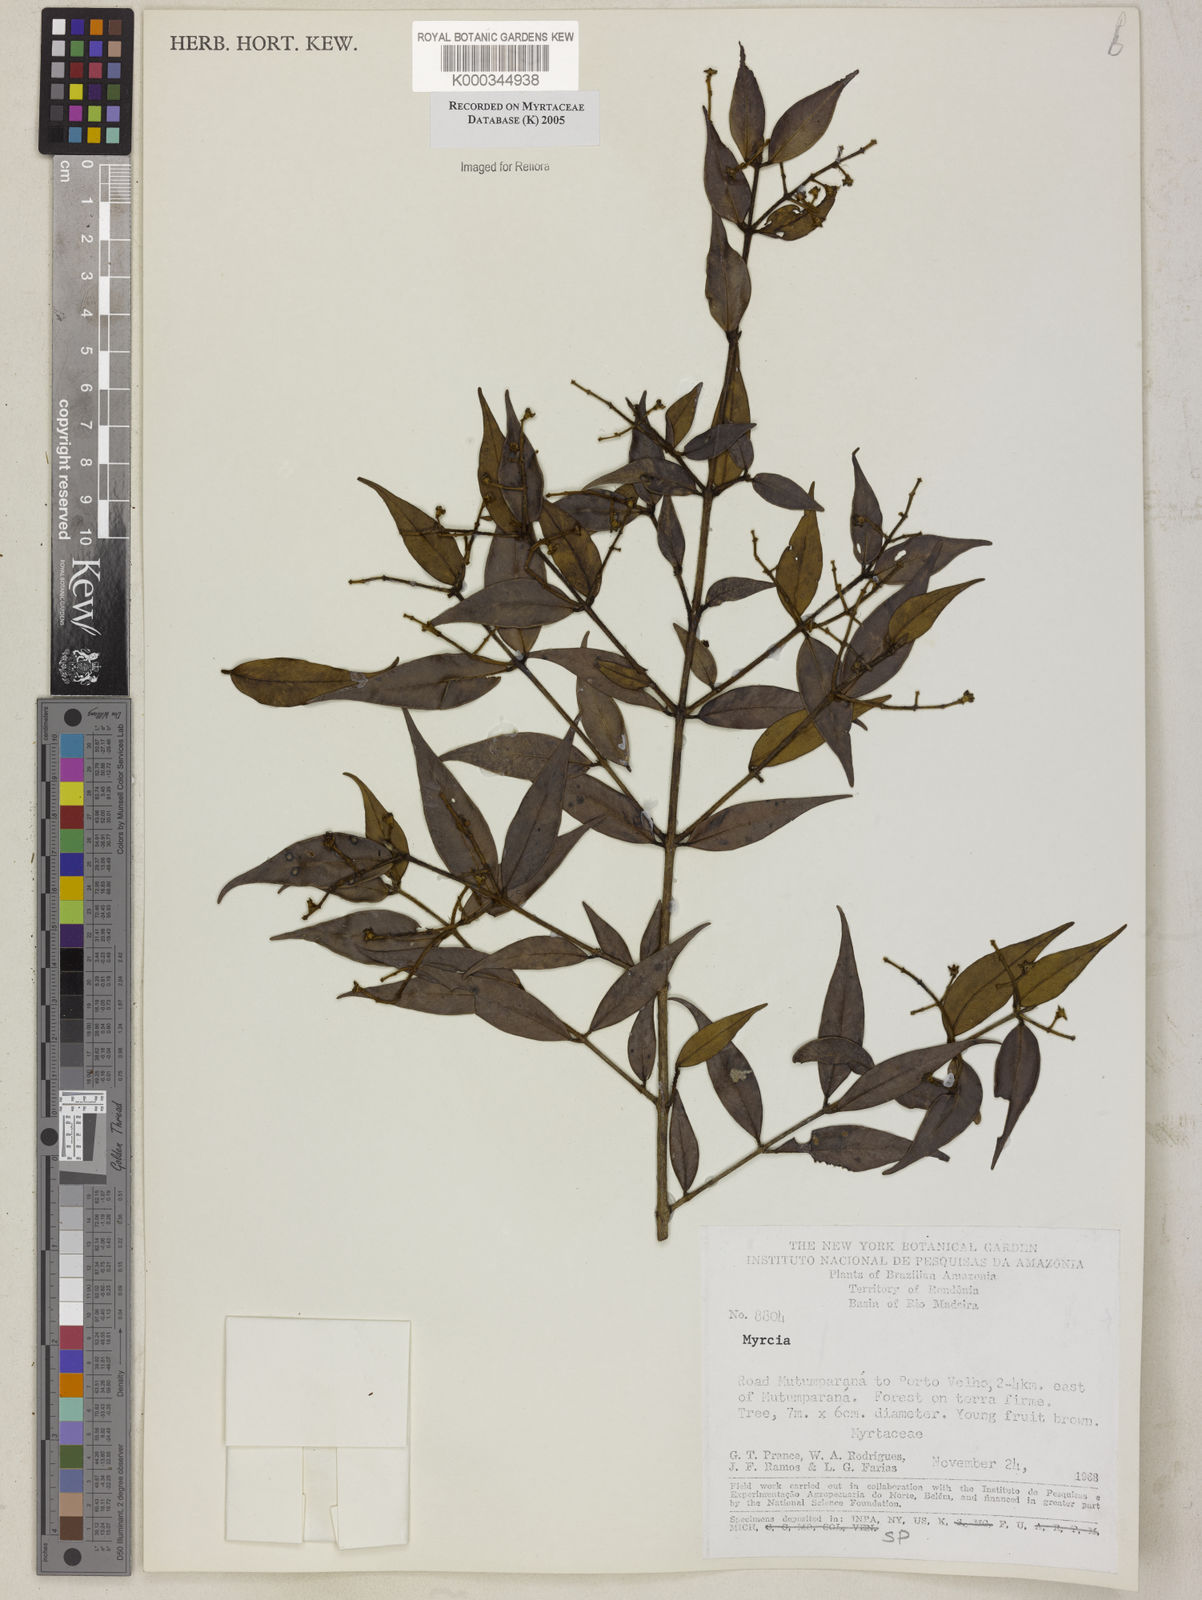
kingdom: Plantae
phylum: Tracheophyta
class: Magnoliopsida
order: Myrtales
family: Myrtaceae
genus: Myrcia
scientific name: Myrcia
